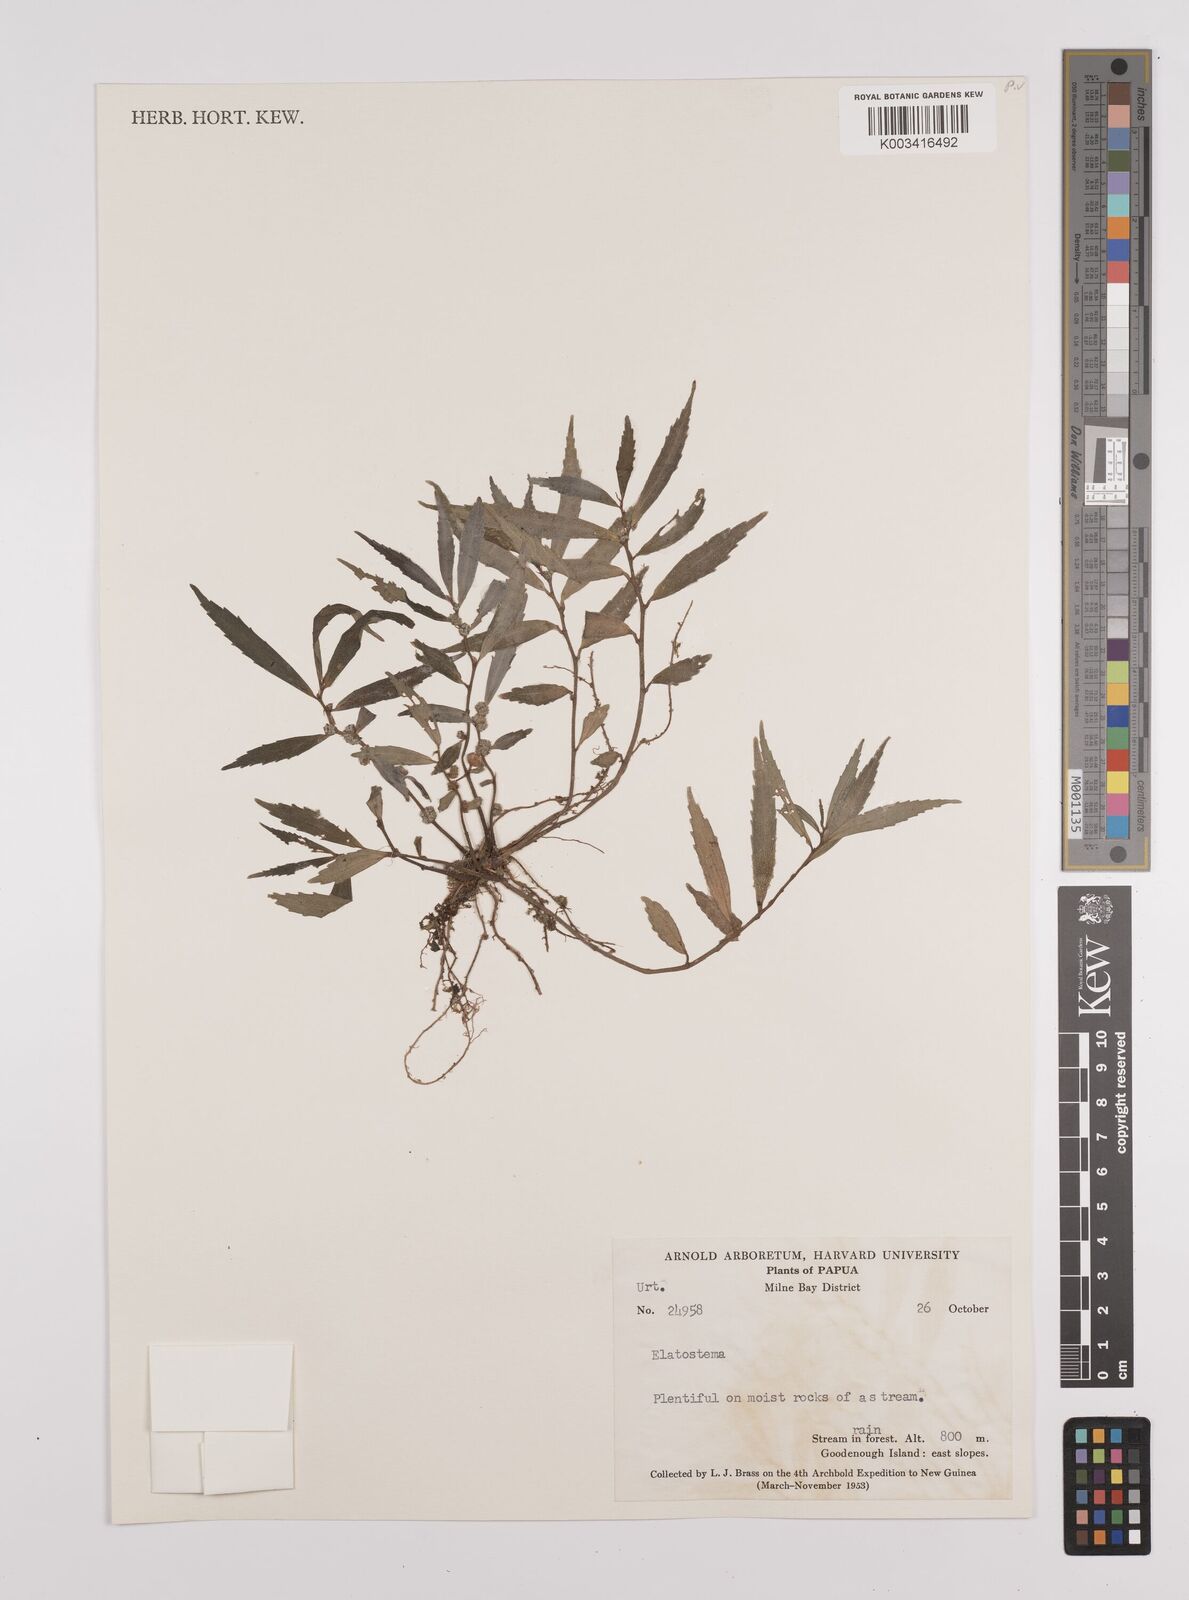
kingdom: Plantae
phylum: Tracheophyta
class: Magnoliopsida
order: Rosales
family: Urticaceae
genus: Elatostema
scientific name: Elatostema
